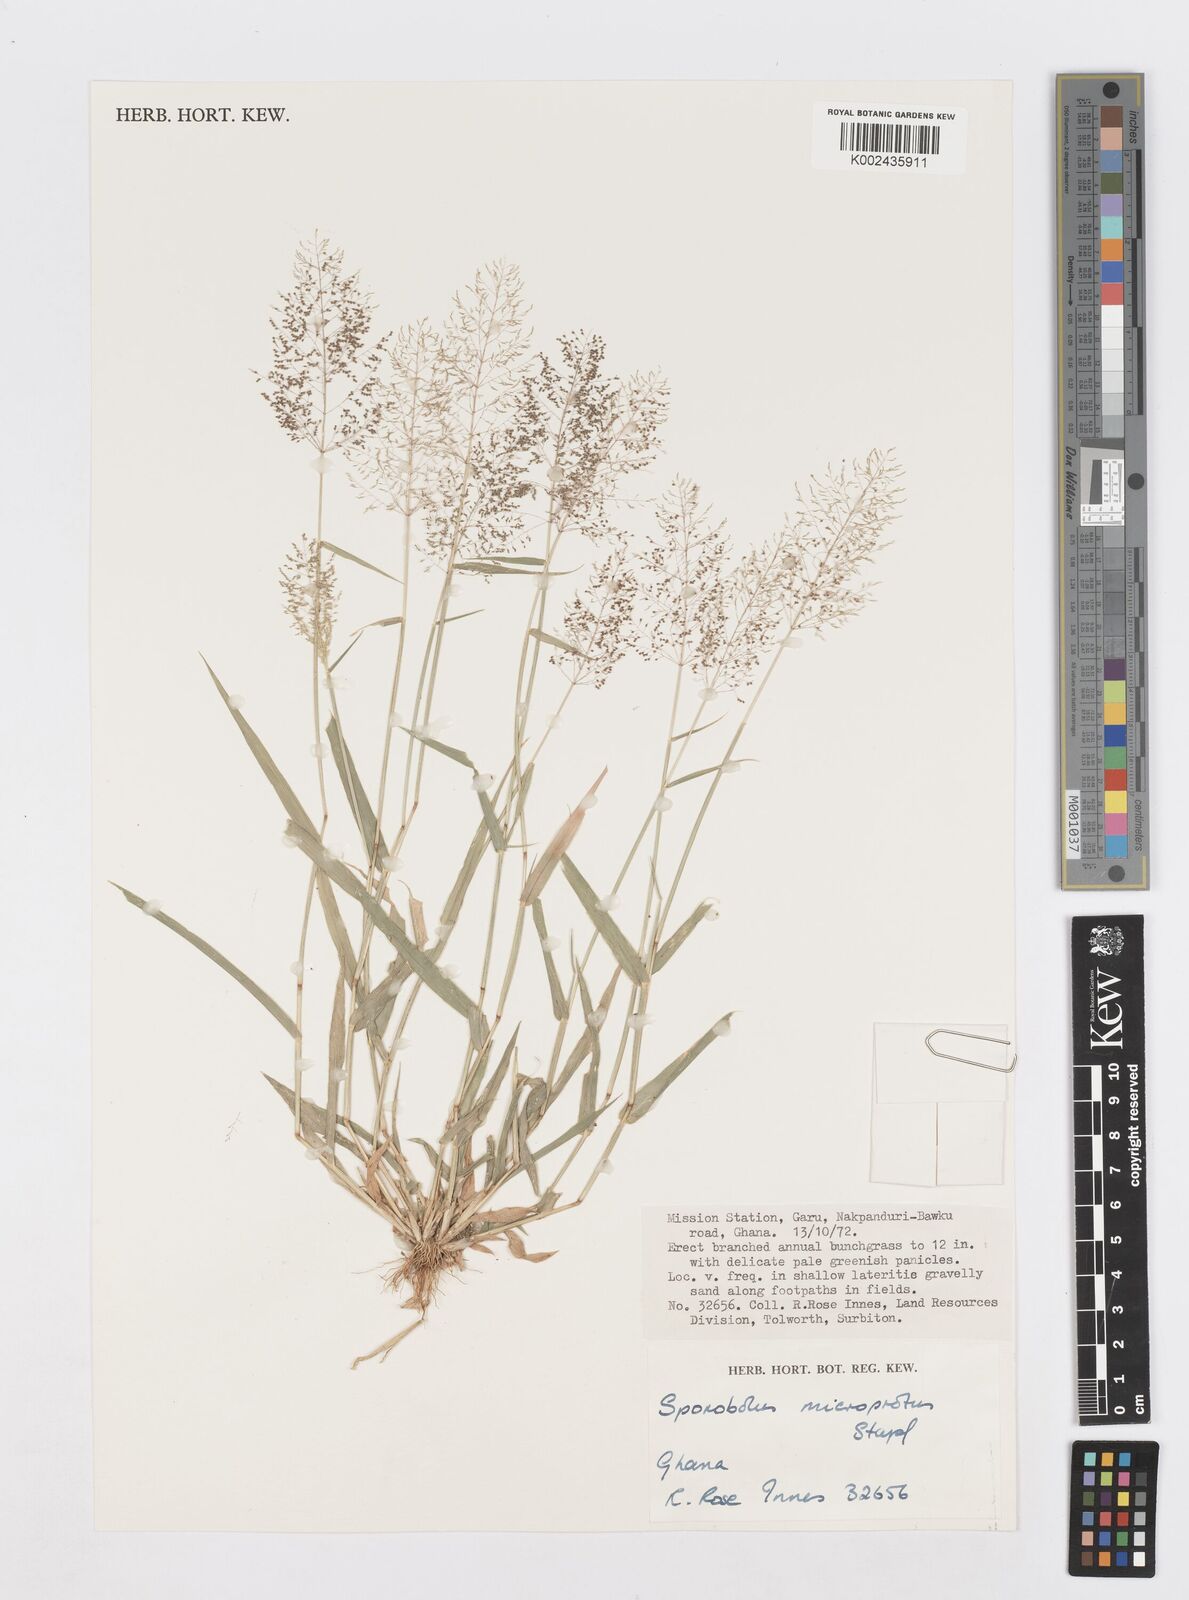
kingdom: Plantae
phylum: Tracheophyta
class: Liliopsida
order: Poales
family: Poaceae
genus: Sporobolus
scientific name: Sporobolus microprotus
